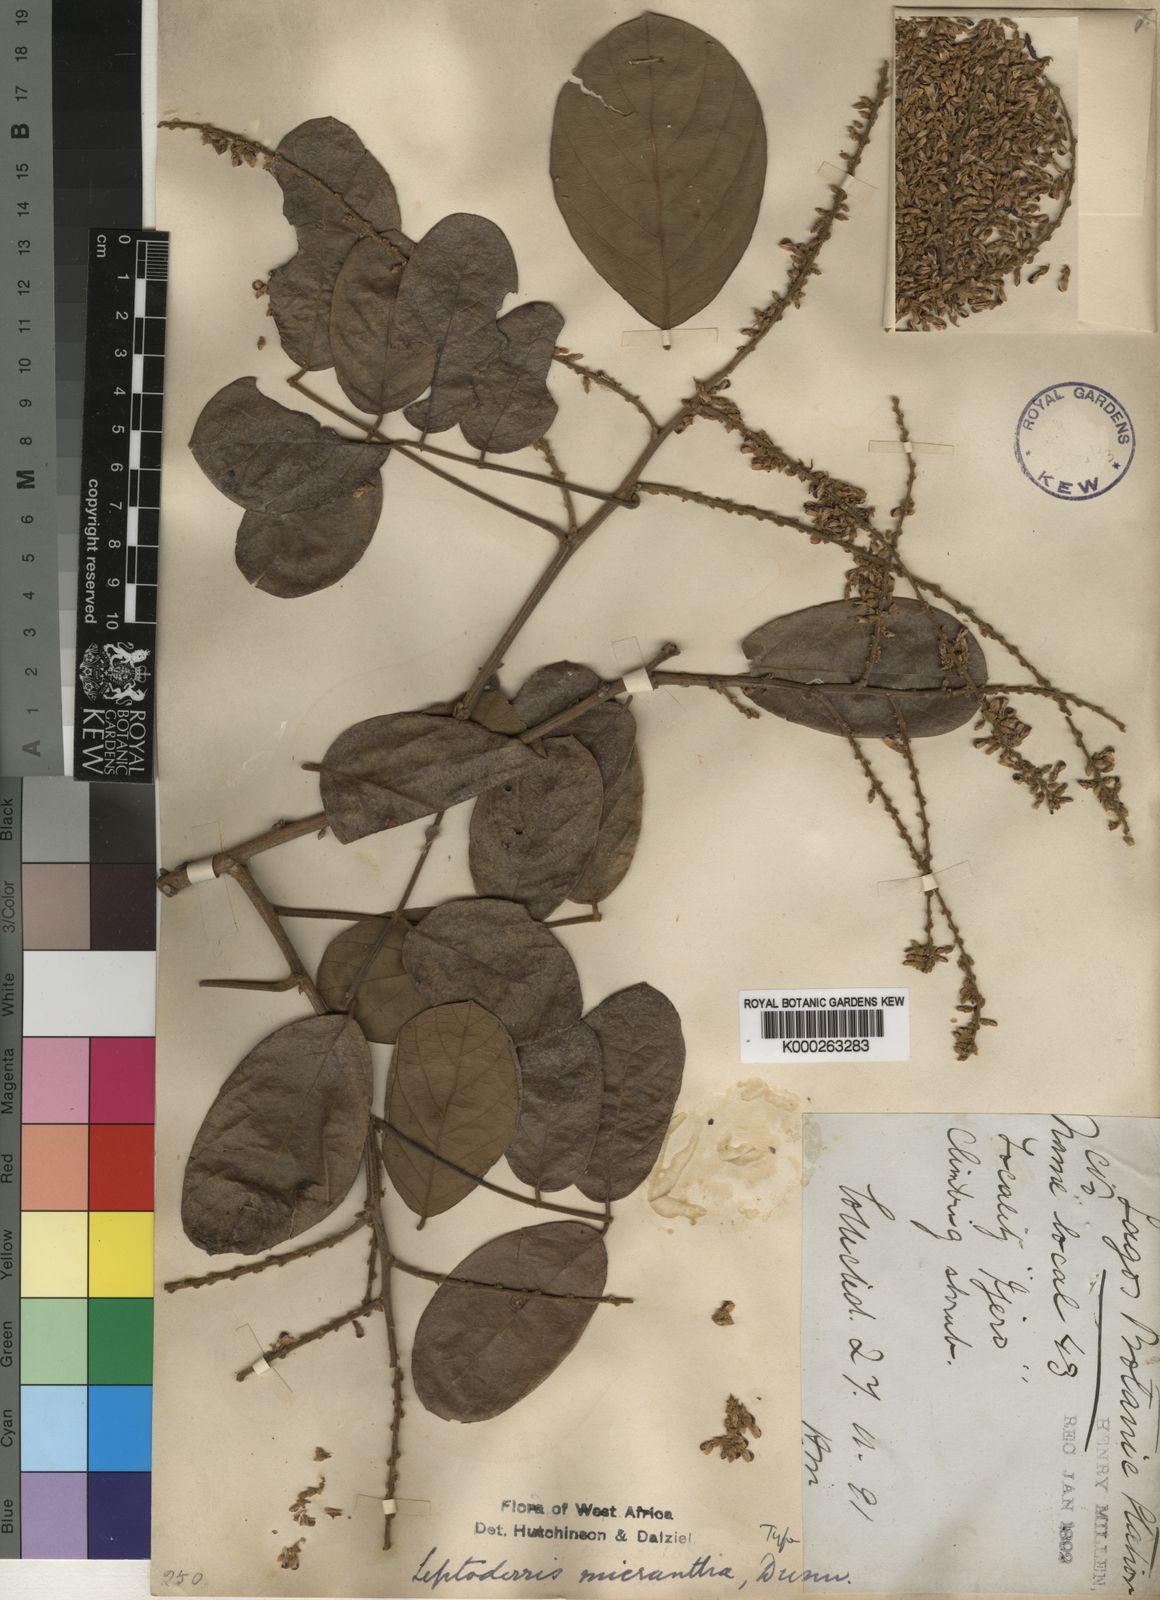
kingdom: Plantae
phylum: Tracheophyta
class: Magnoliopsida
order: Fabales
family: Fabaceae
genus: Leptoderris
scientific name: Leptoderris micrantha
